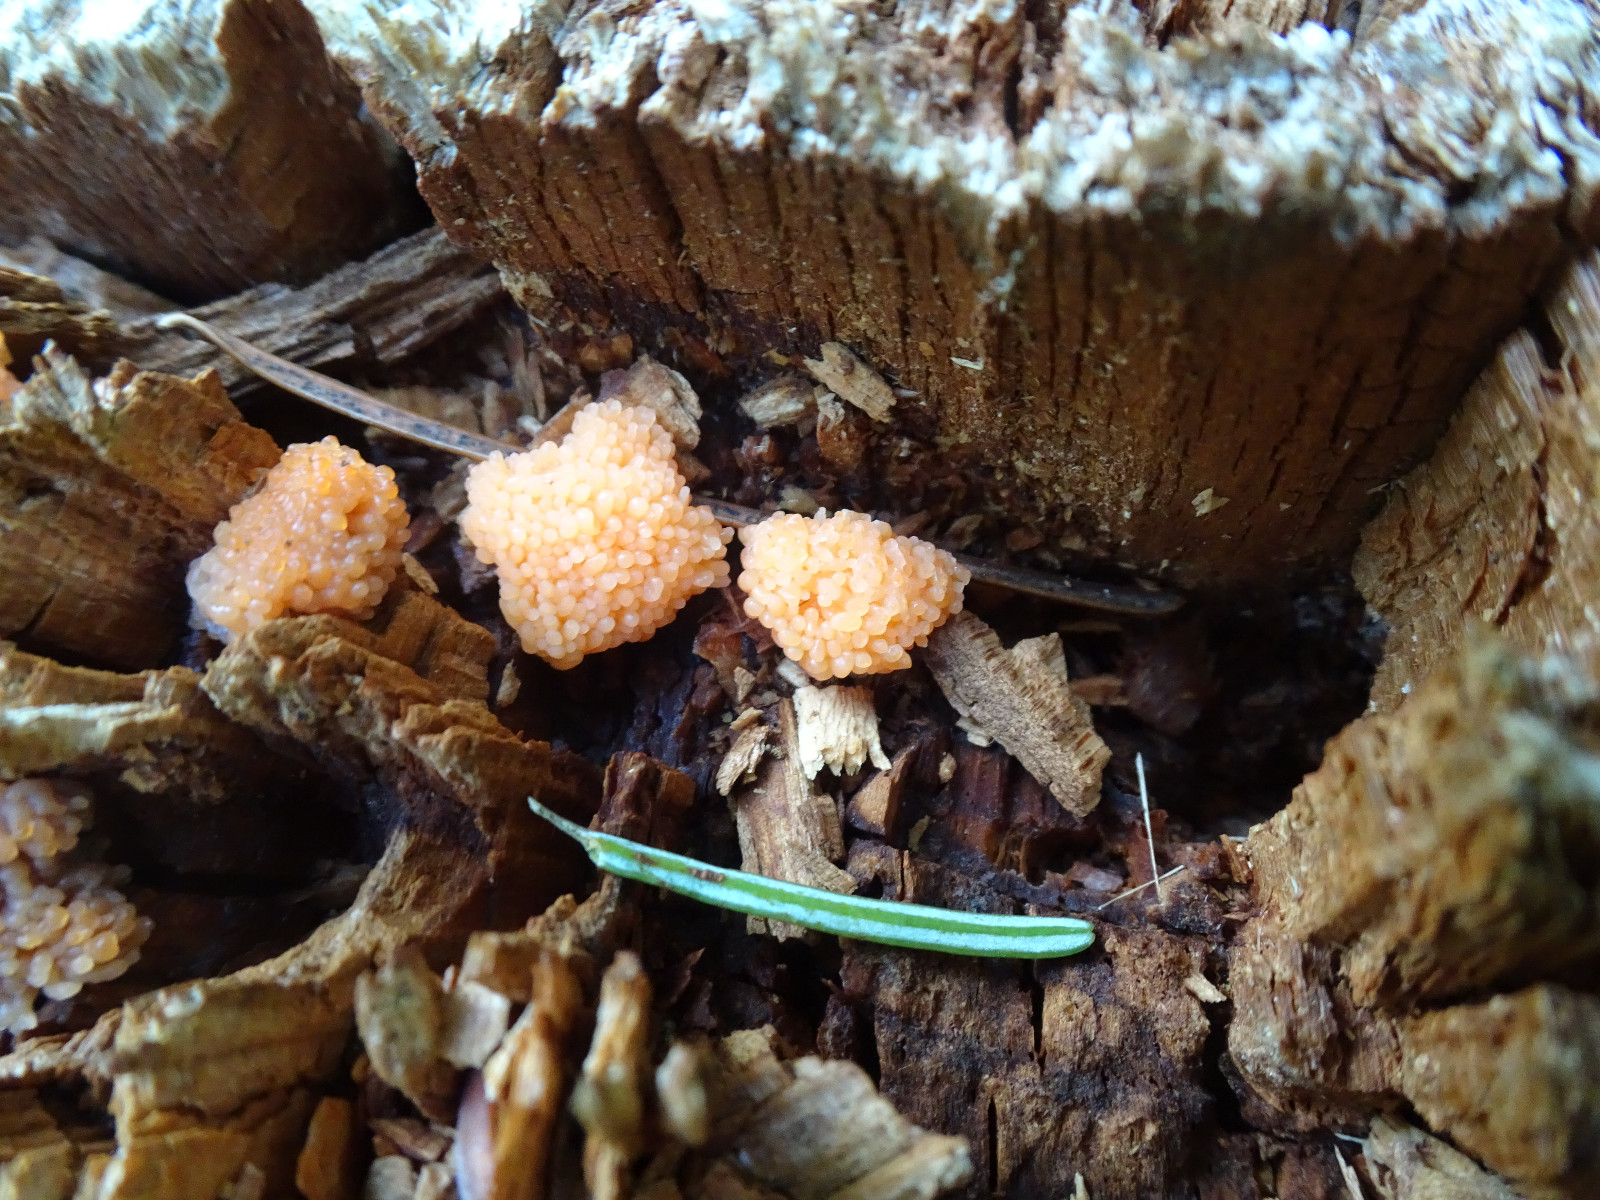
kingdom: Protozoa
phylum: Mycetozoa
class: Myxomycetes
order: Cribrariales
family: Tubiferaceae
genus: Tubifera
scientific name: Tubifera ferruginosa
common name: kanel-støvrør
